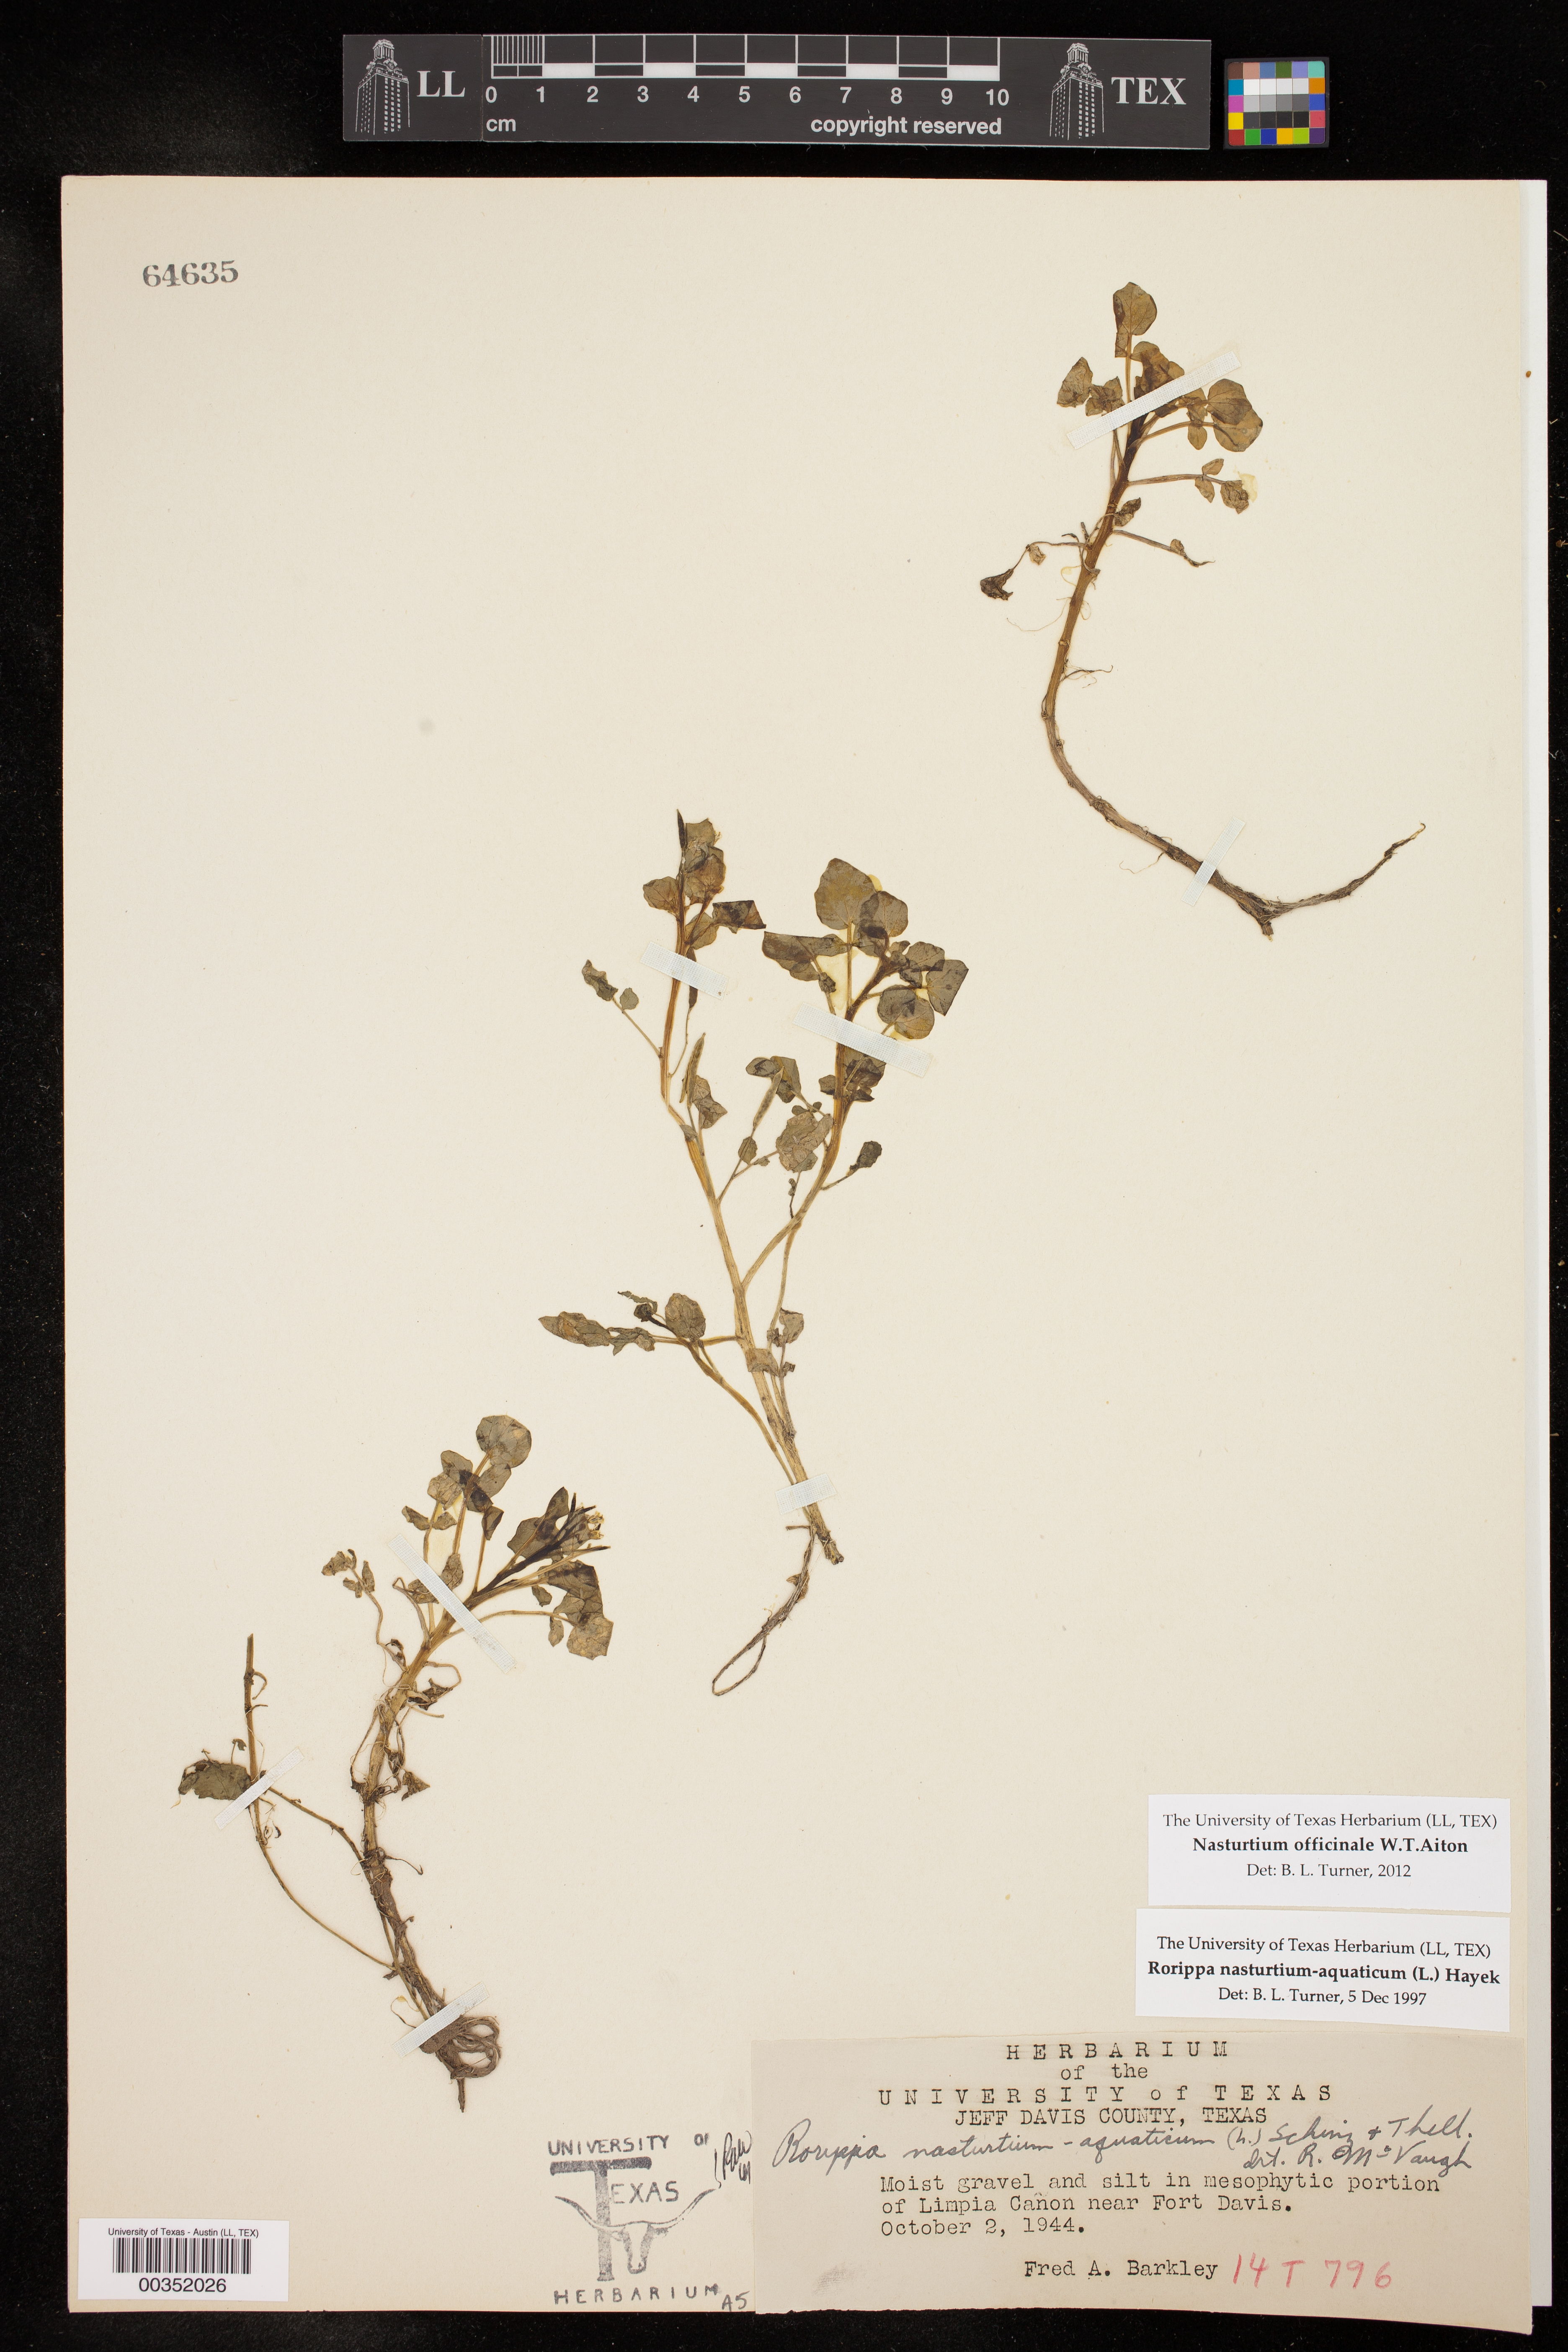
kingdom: Plantae
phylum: Tracheophyta
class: Magnoliopsida
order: Brassicales
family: Brassicaceae
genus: Nasturtium
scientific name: Nasturtium officinale
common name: Watercress
